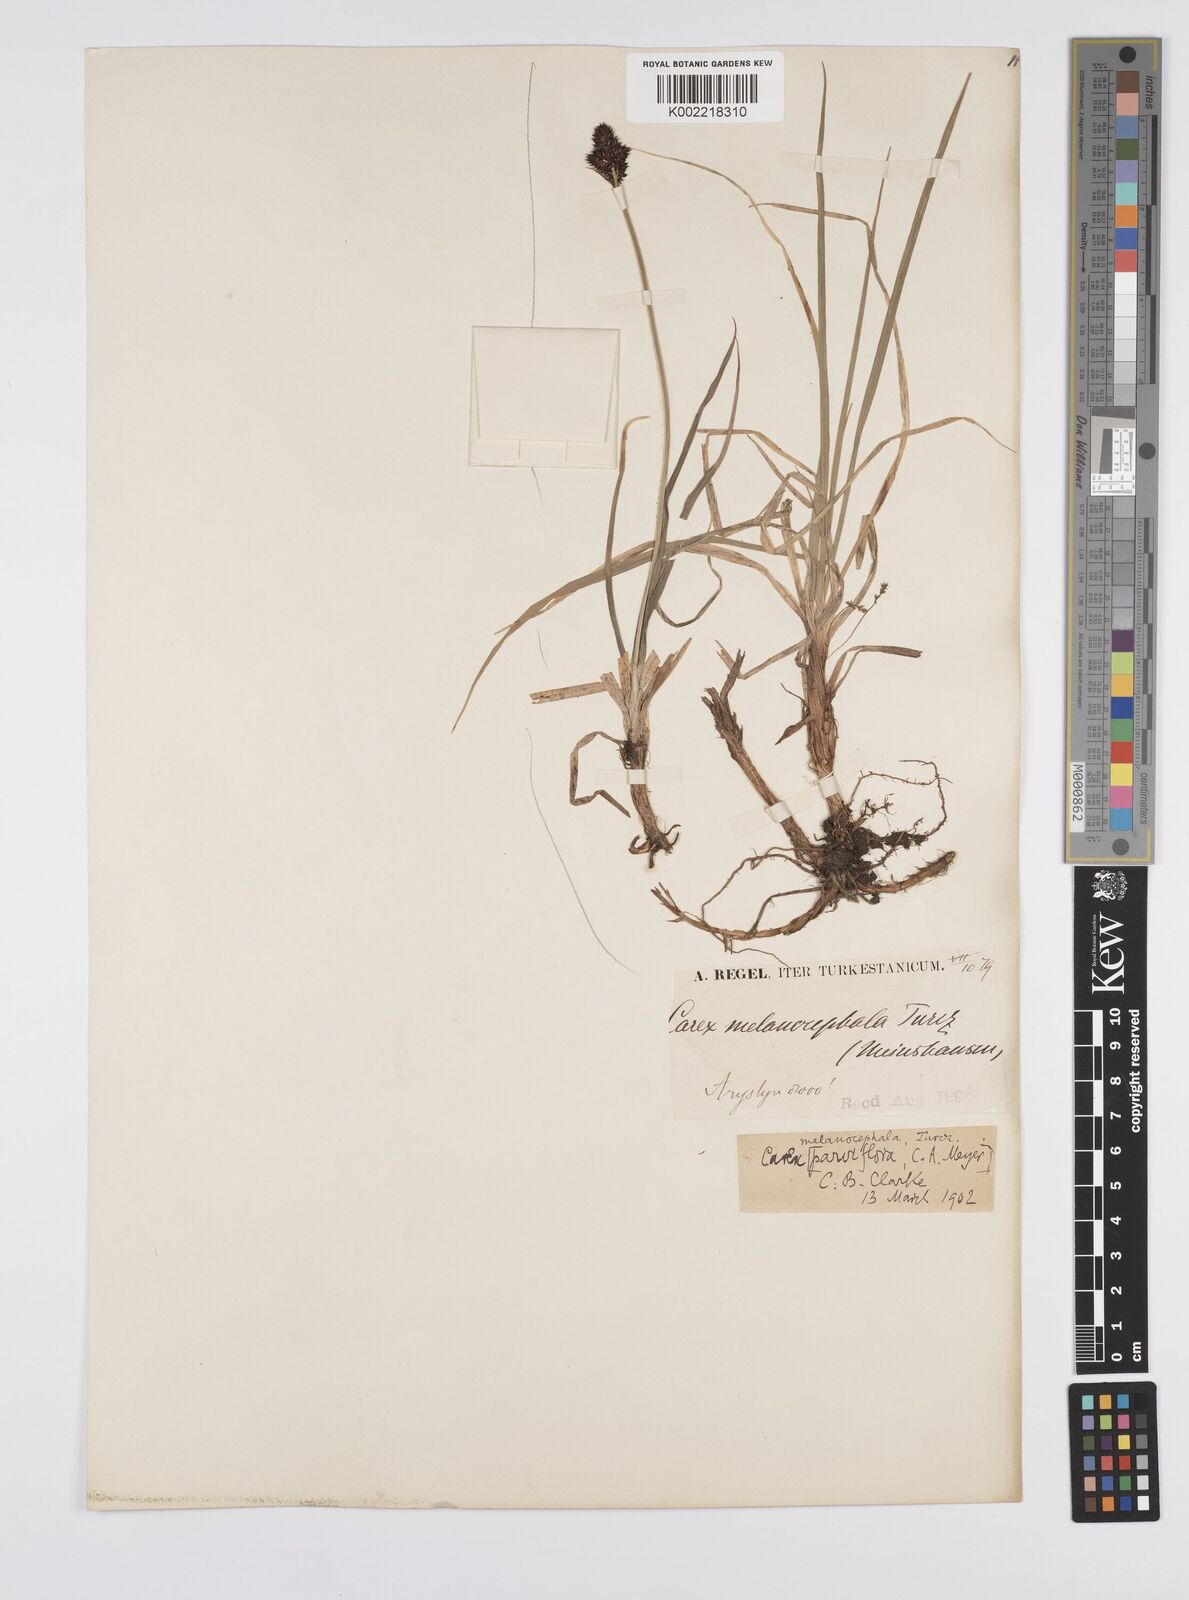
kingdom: Plantae
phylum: Tracheophyta
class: Liliopsida
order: Poales
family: Cyperaceae
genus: Carex
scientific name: Carex melanocephala
